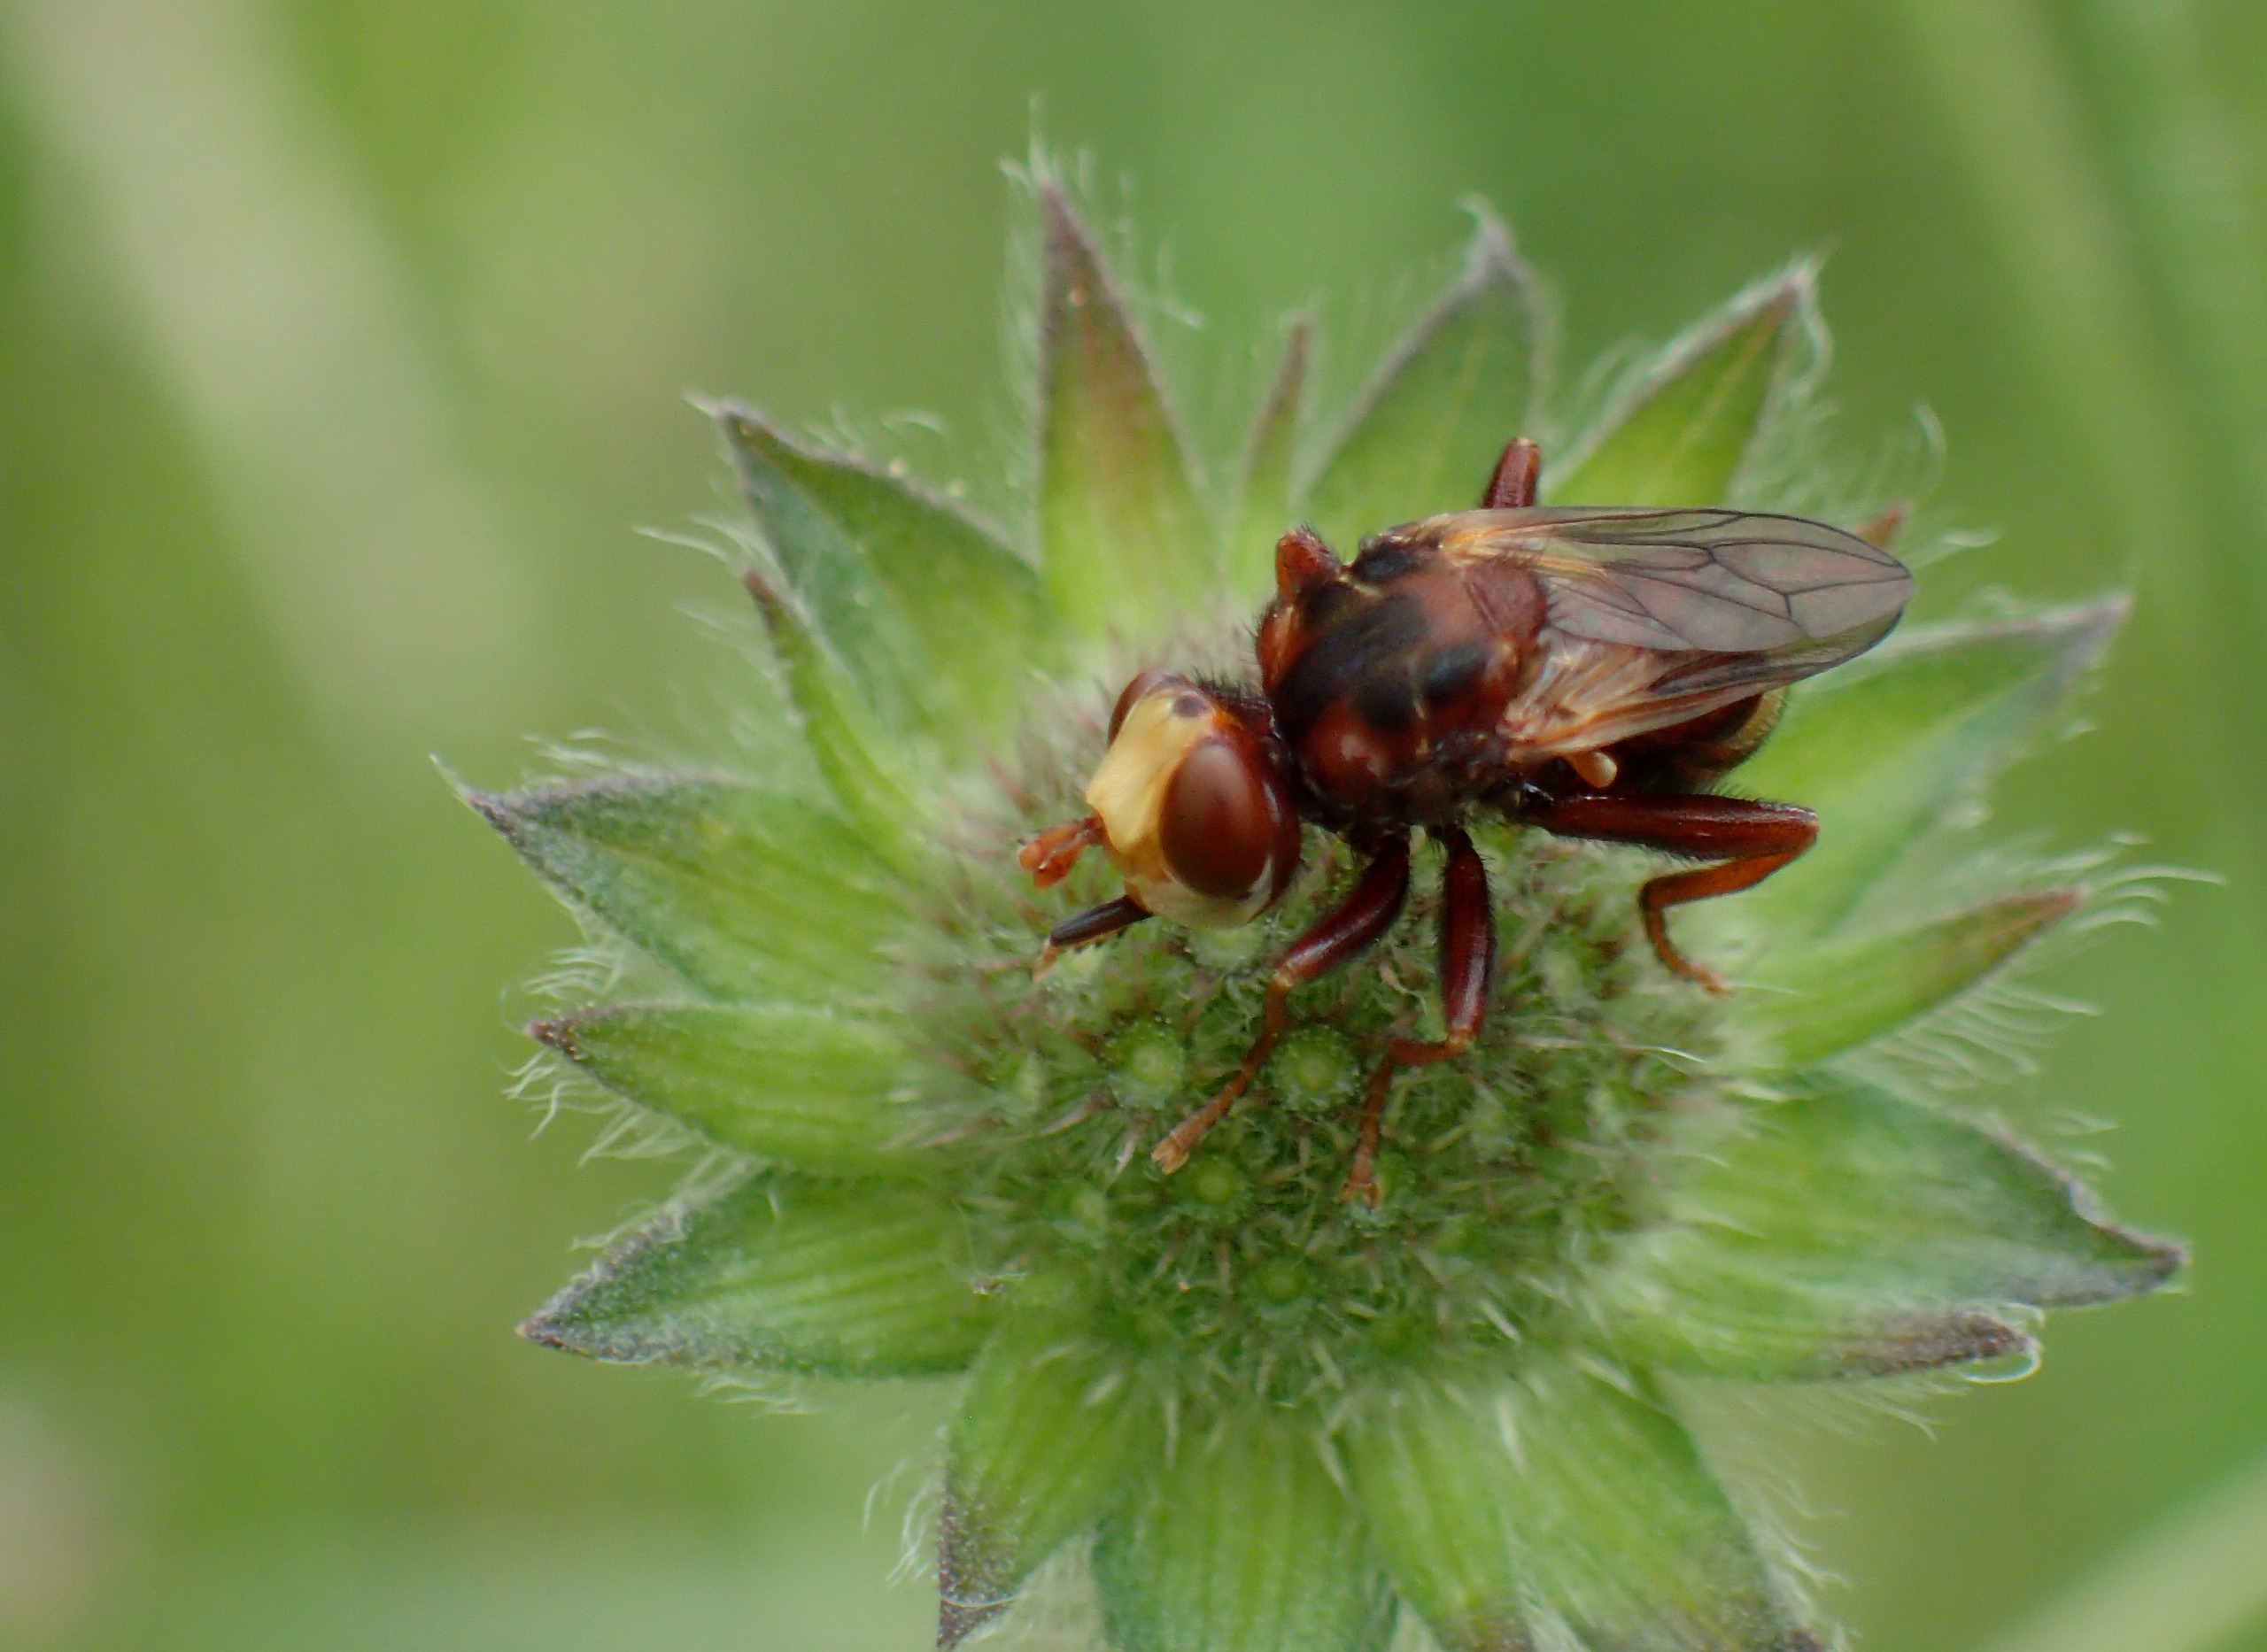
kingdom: Animalia
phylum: Arthropoda
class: Insecta
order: Diptera
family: Conopidae
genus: Sicus
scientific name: Sicus ferrugineus
